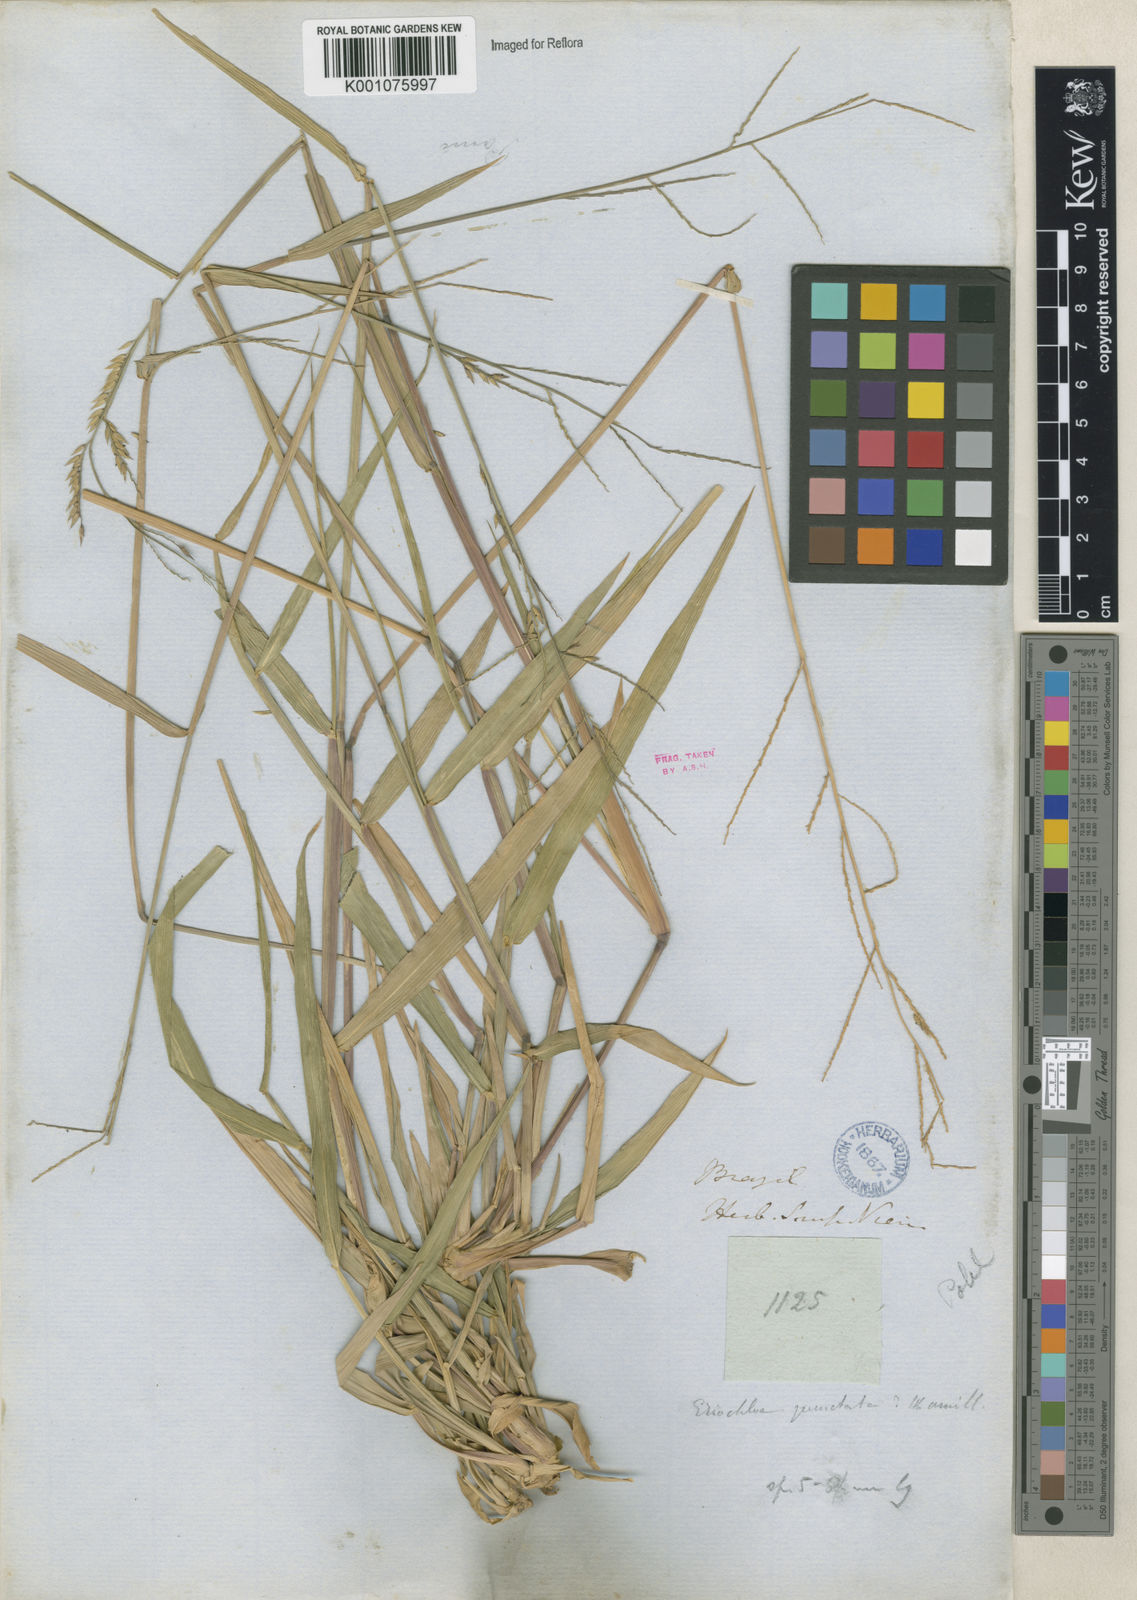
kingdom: Plantae
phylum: Tracheophyta
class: Liliopsida
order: Poales
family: Poaceae
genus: Eriochloa
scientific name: Eriochloa punctata
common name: Louisiana cupgrass
